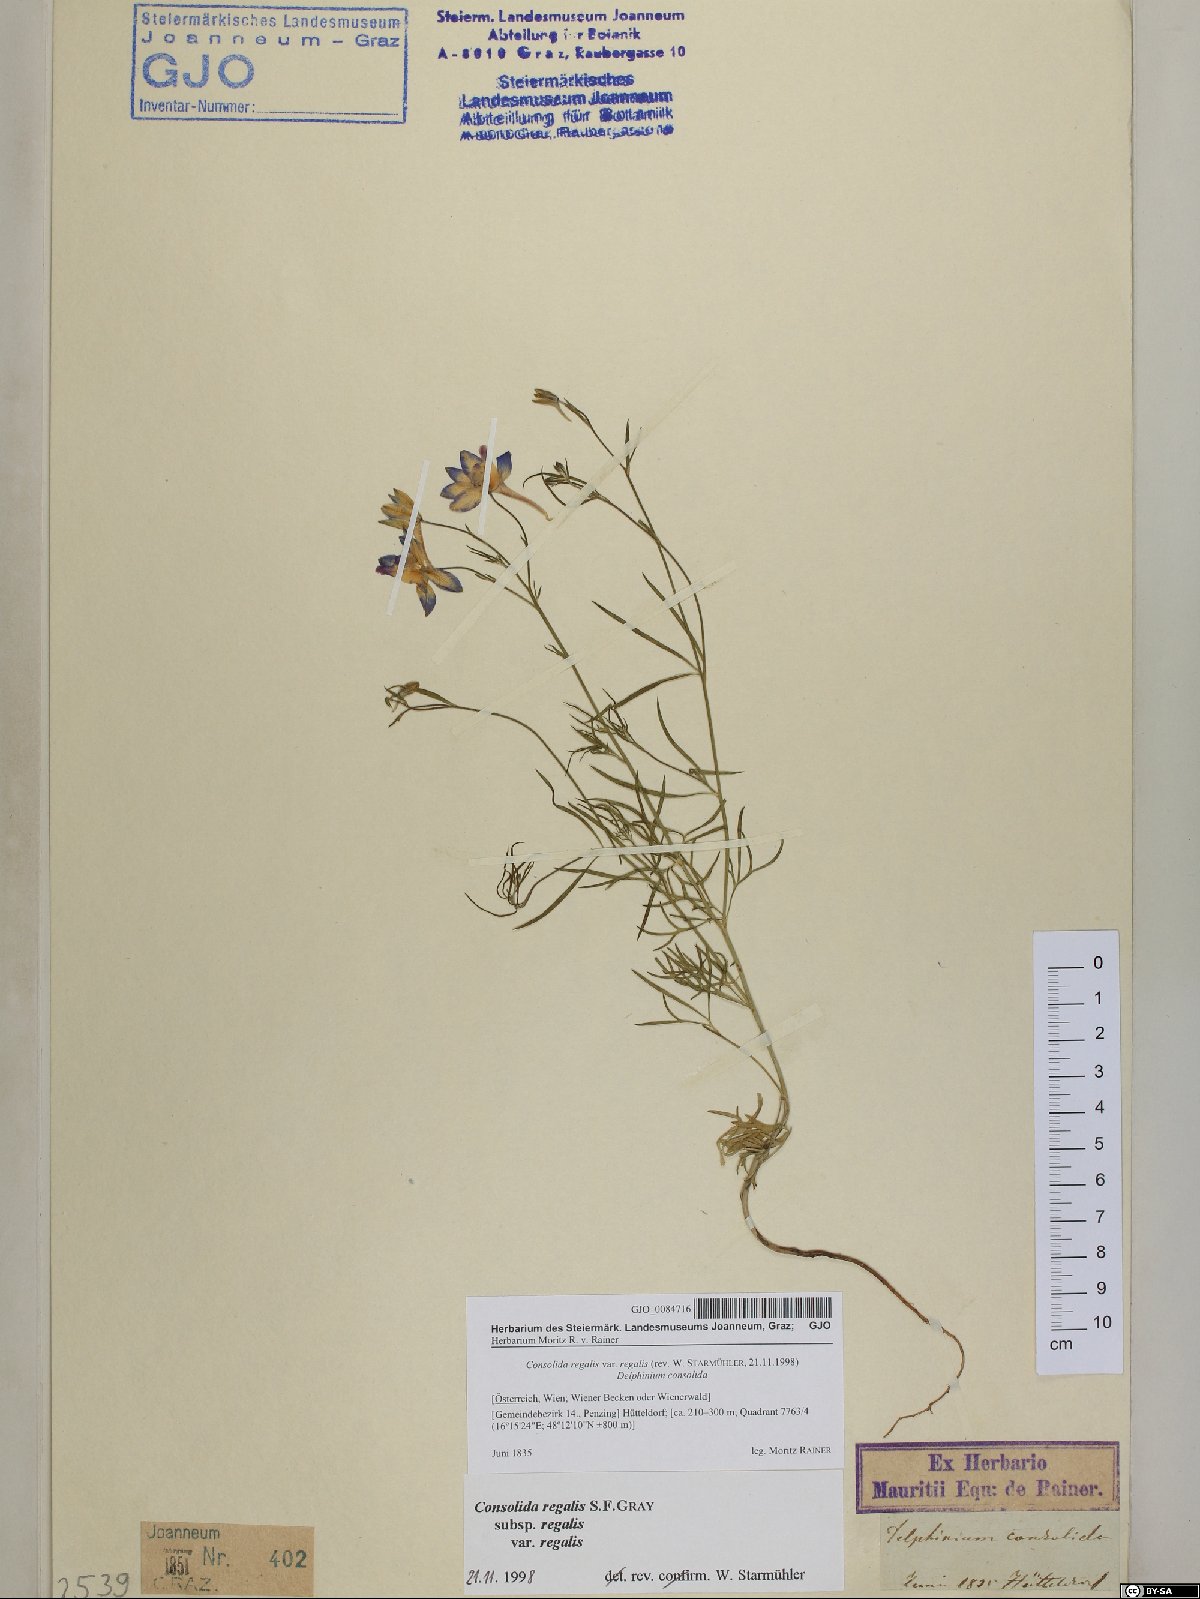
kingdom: Plantae
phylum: Tracheophyta
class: Magnoliopsida
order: Ranunculales
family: Ranunculaceae
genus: Delphinium
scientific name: Delphinium consolida
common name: Branching larkspur
